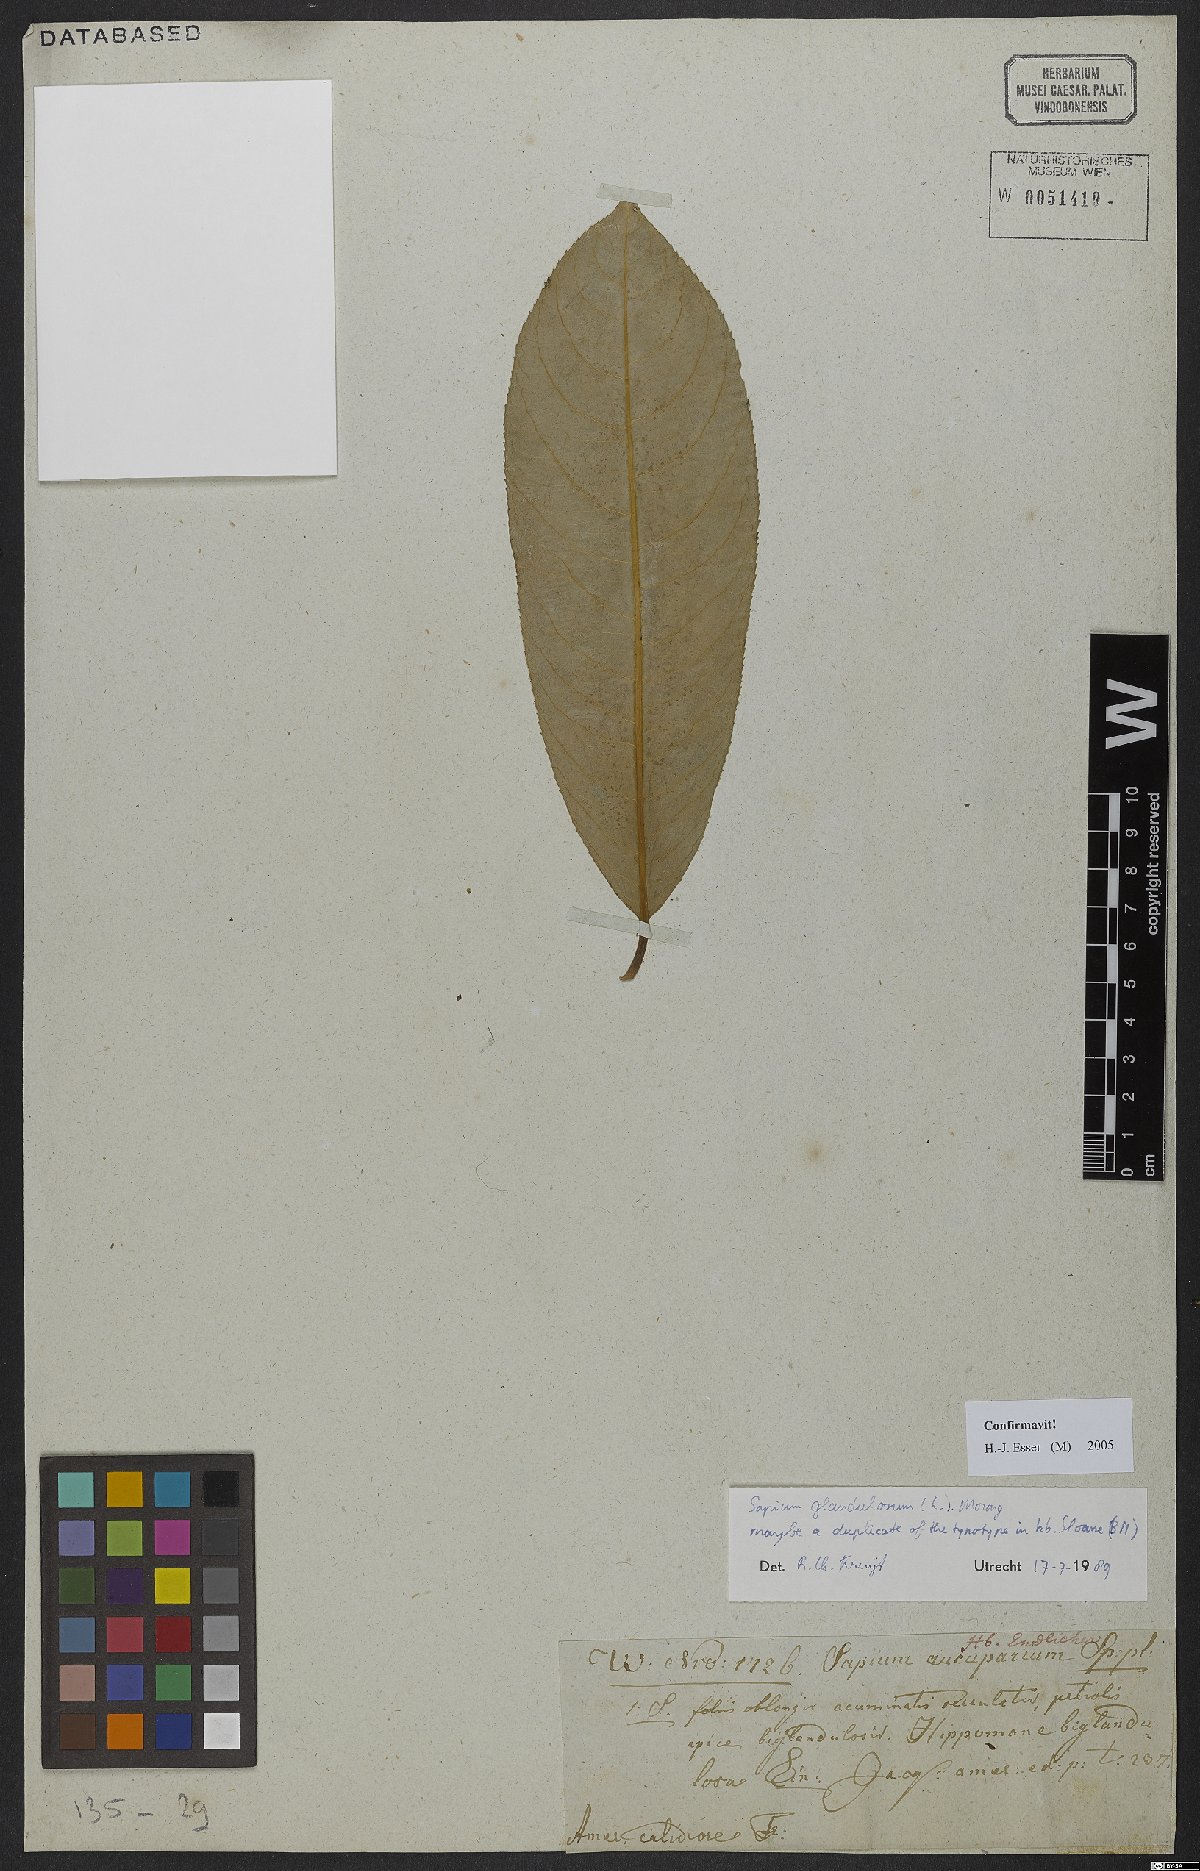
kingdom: Plantae
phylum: Tracheophyta
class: Magnoliopsida
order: Malpighiales
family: Euphorbiaceae
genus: Sapium
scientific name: Sapium glandulosum
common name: Milktree
